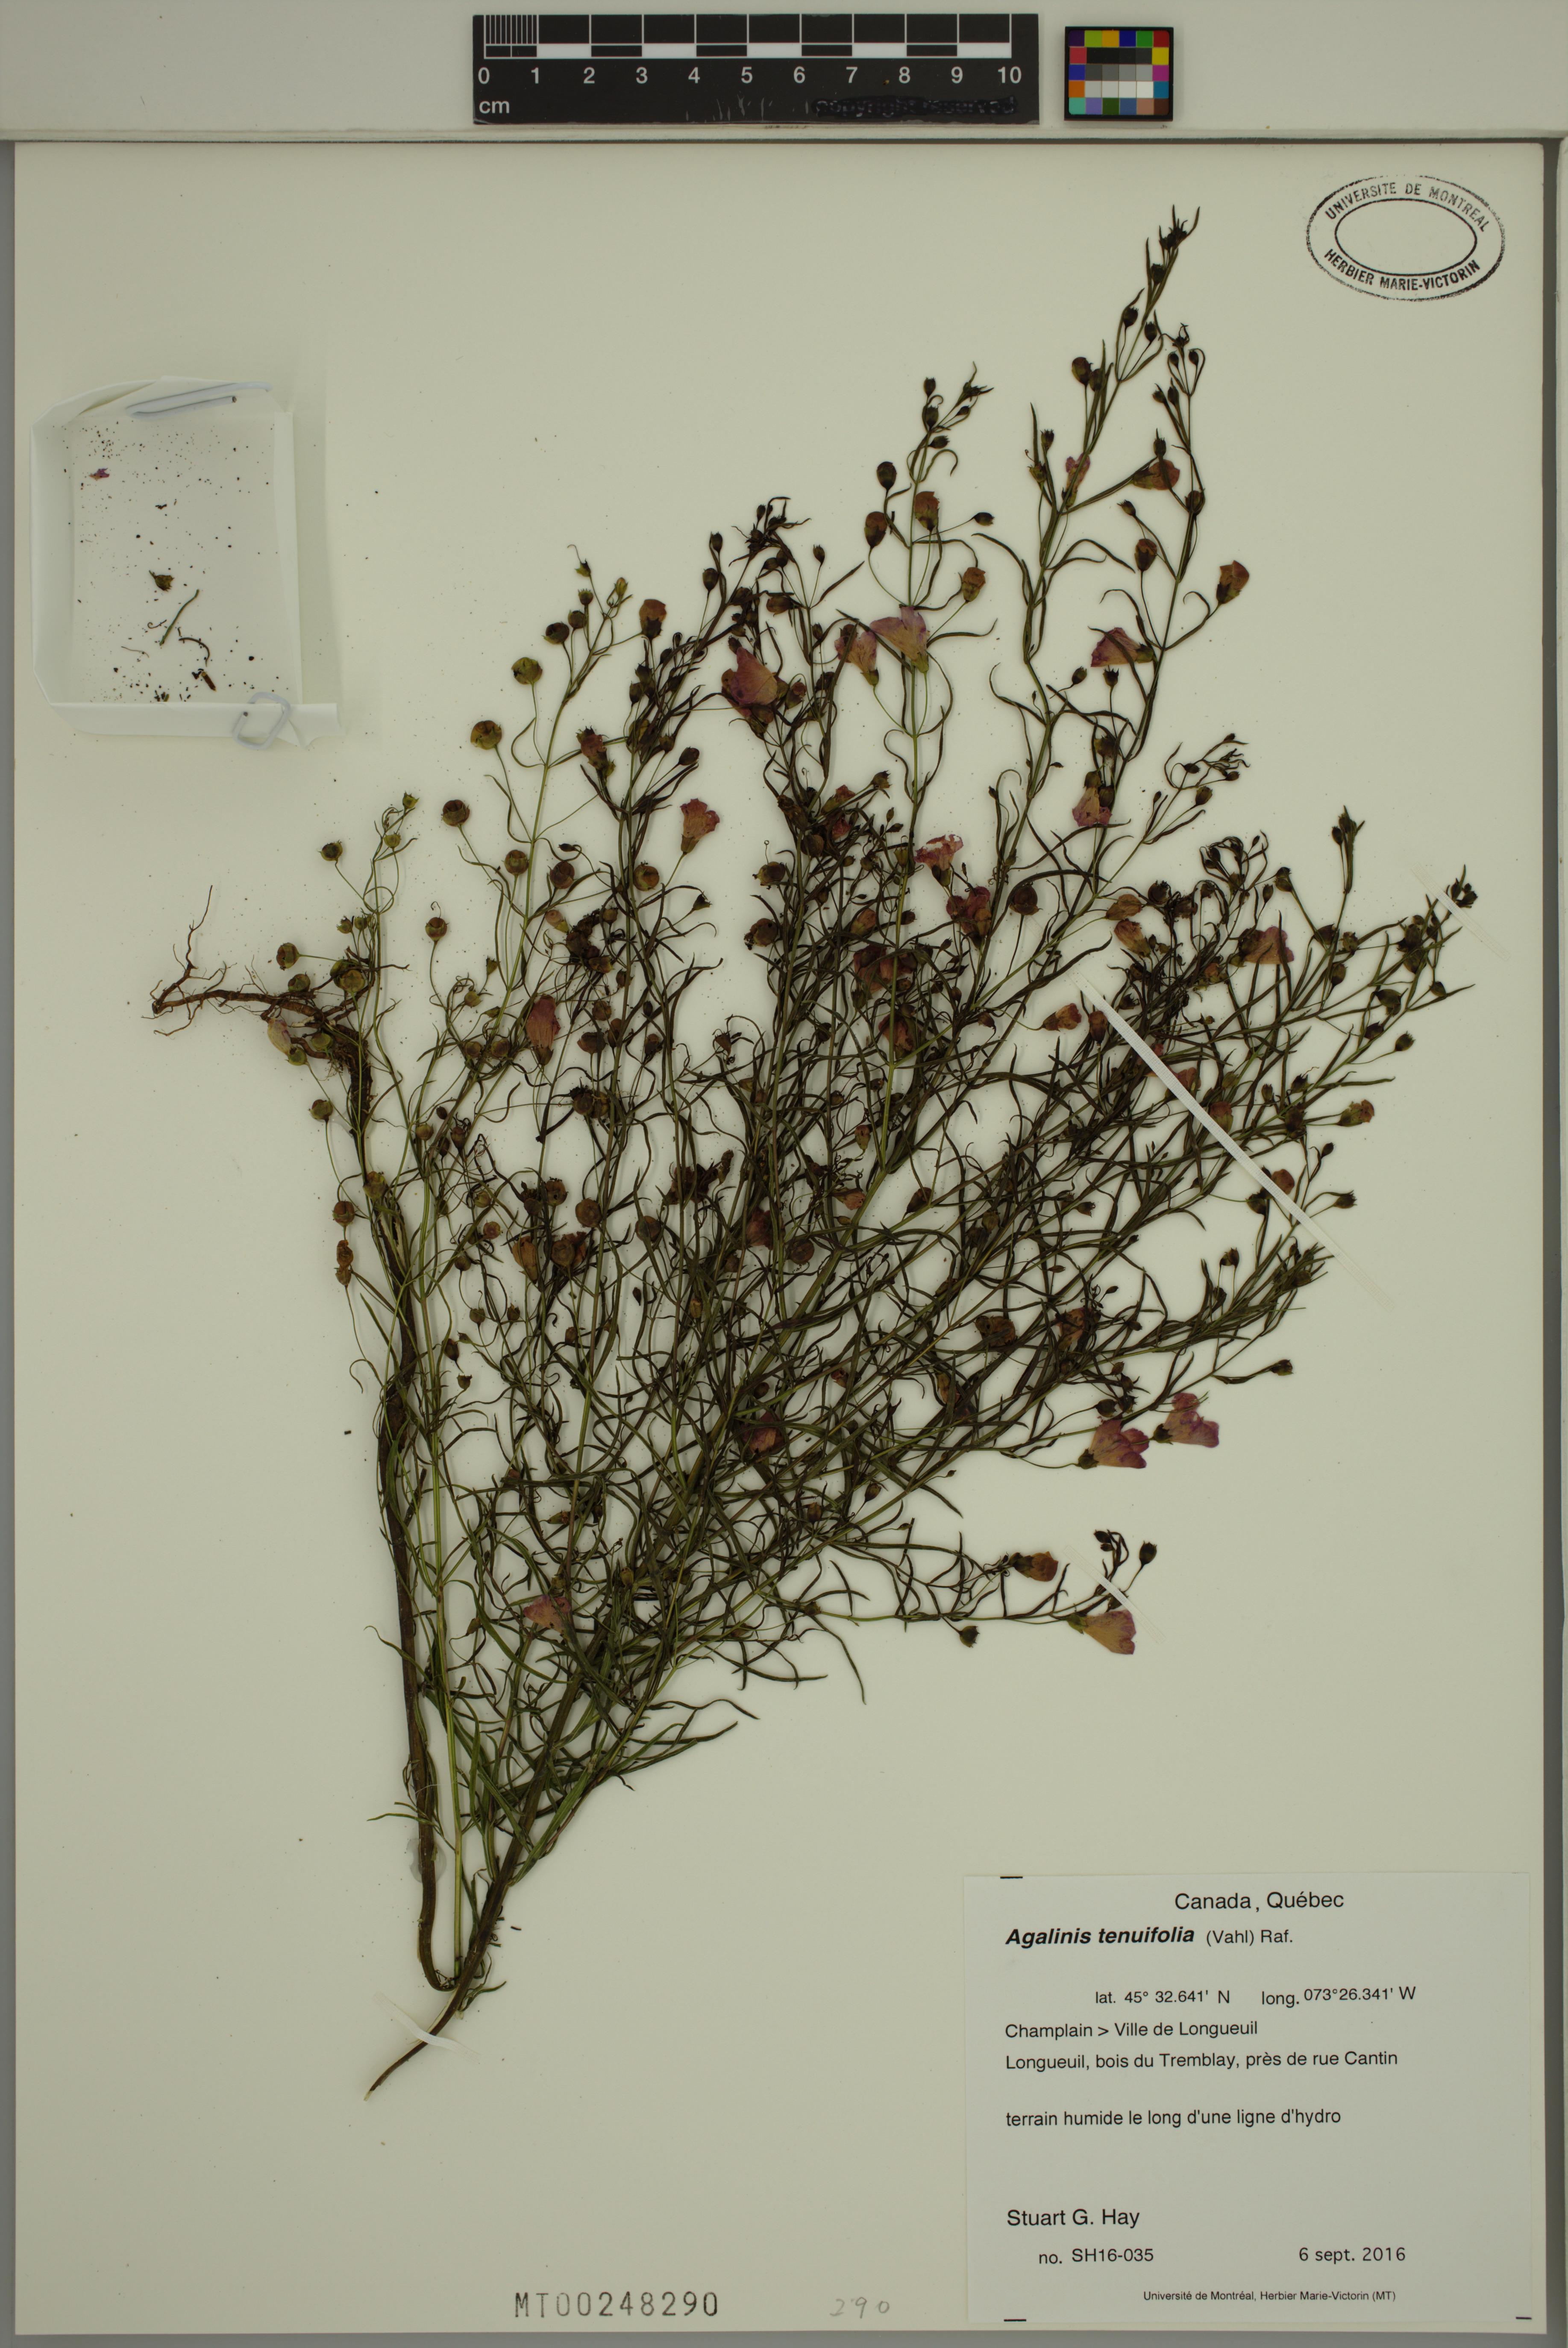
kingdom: Plantae
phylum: Tracheophyta
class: Magnoliopsida
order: Lamiales
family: Orobanchaceae
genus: Agalinis
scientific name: Agalinis tenuifolia
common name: Slender agalinis
